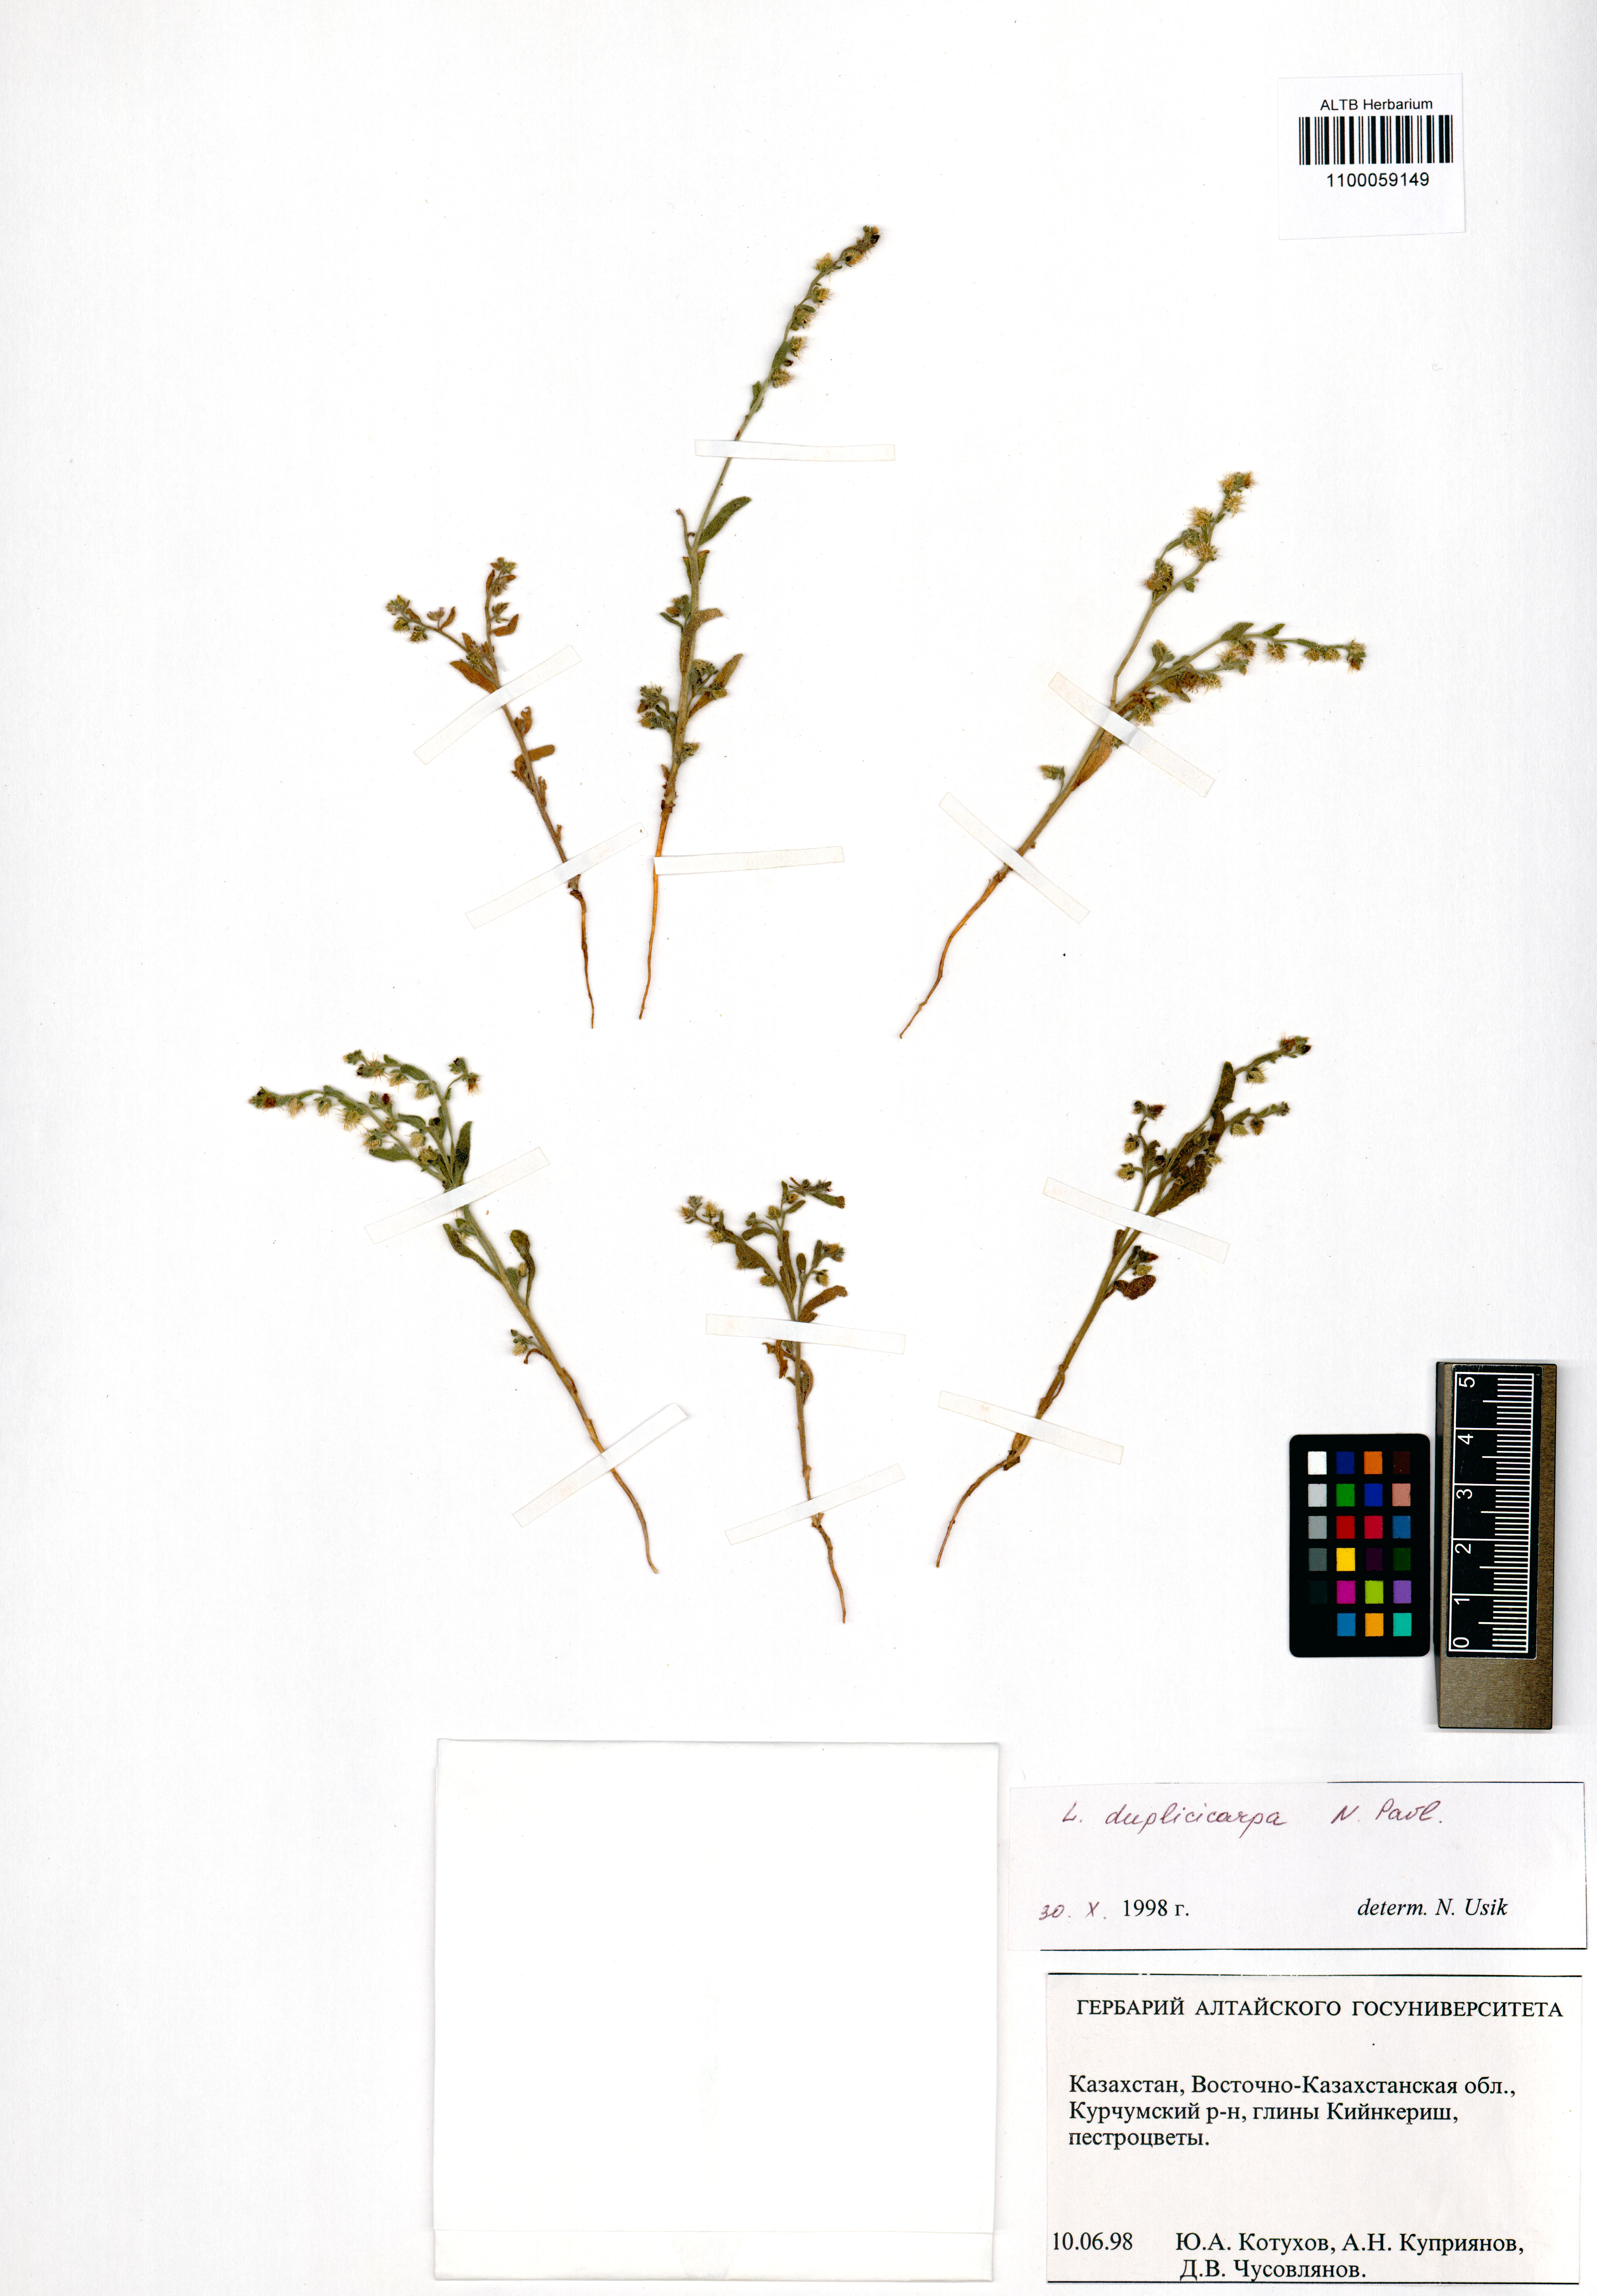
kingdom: Plantae
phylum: Tracheophyta
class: Magnoliopsida
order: Boraginales
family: Boraginaceae
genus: Lappula
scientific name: Lappula duplicicarpa
